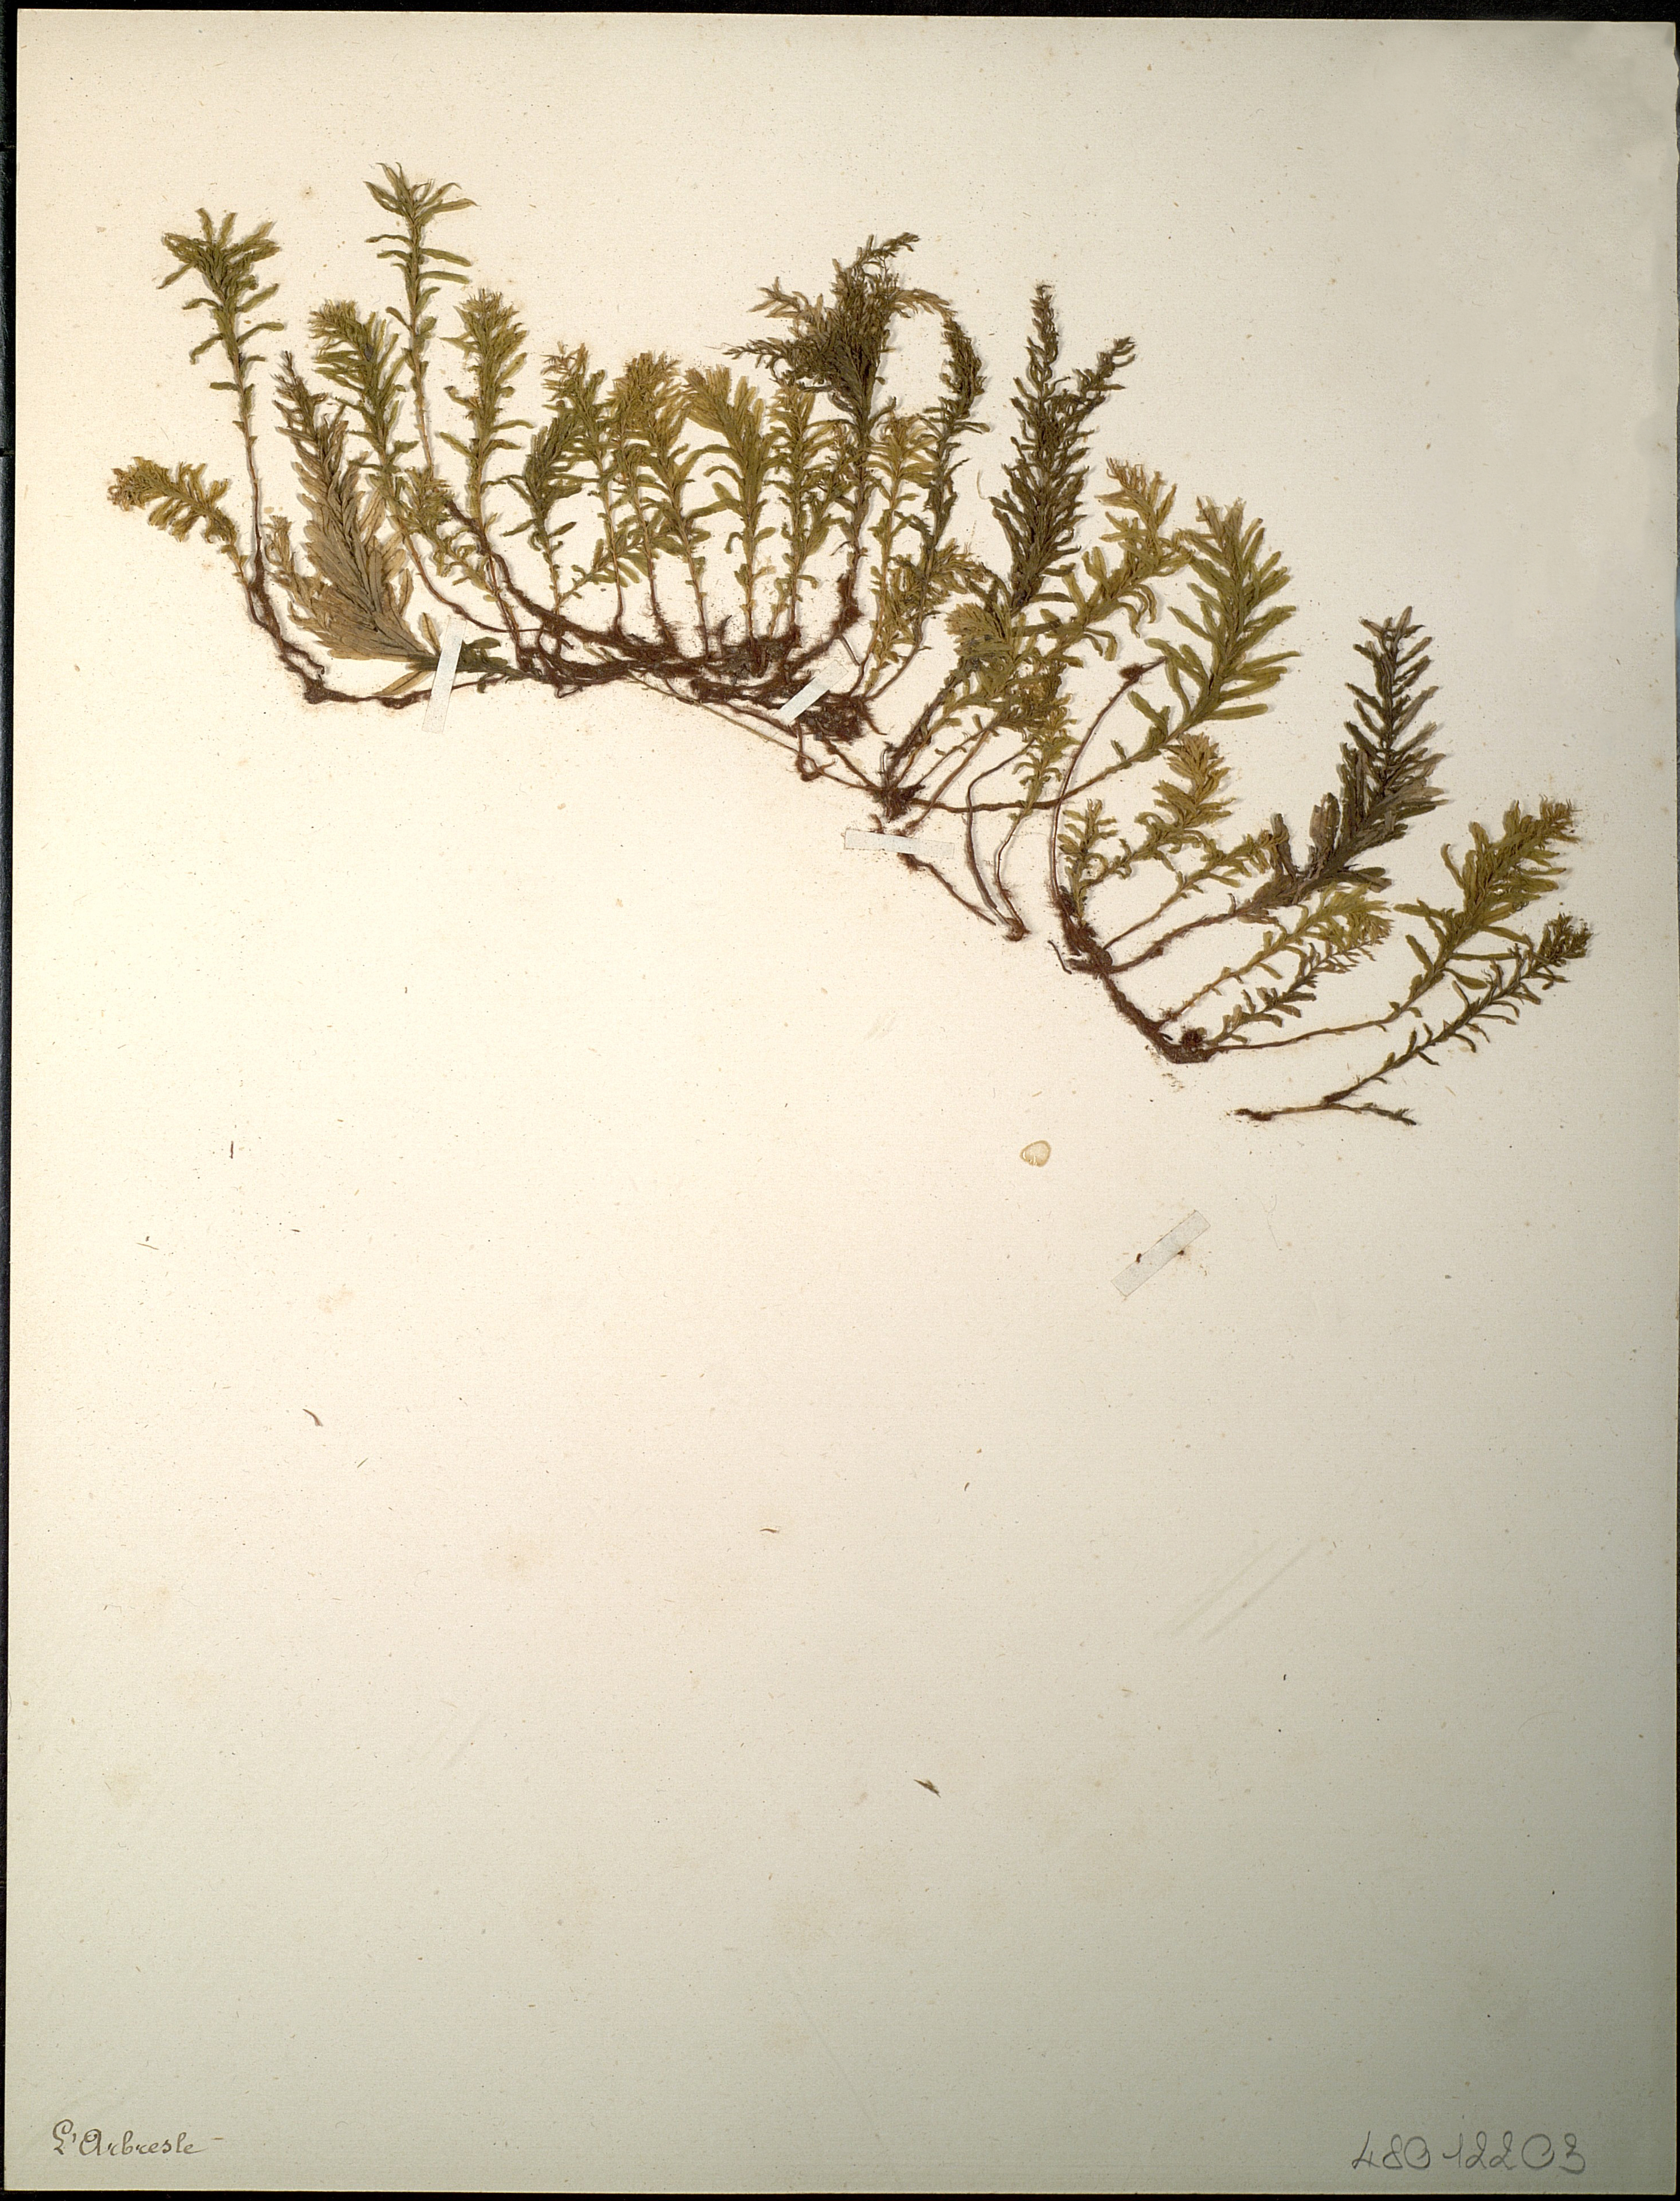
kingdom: Plantae
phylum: Bryophyta
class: Bryopsida
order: Bryales
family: Mniaceae
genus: Plagiomnium
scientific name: Plagiomnium undulatum
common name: Hart's-tongue thyme-moss
